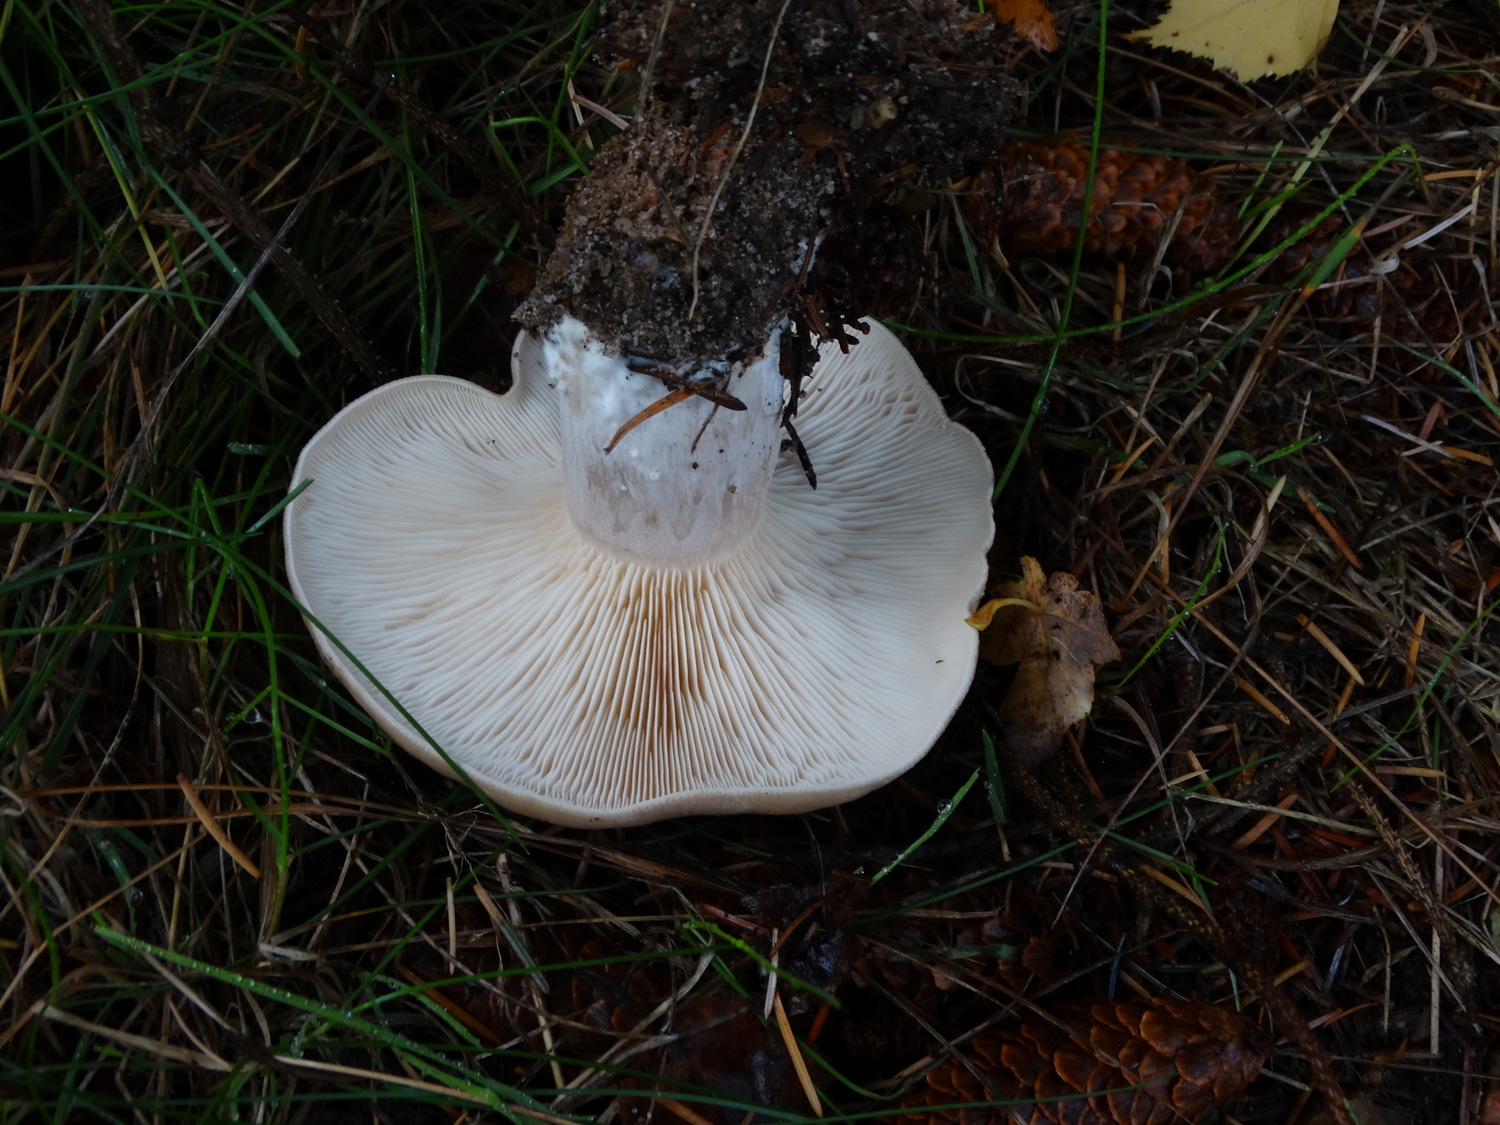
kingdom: Fungi
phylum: Basidiomycota
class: Agaricomycetes
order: Agaricales
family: Tricholomataceae
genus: Clitocybe
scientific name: Clitocybe nebularis
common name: tåge-tragthat
